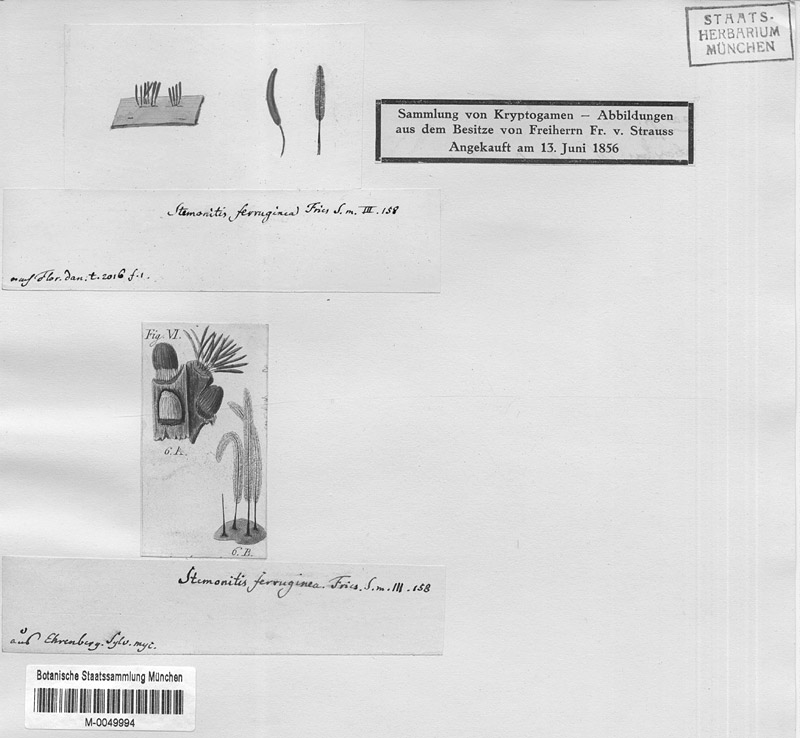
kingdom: Protozoa
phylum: Mycetozoa
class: Myxomycetes
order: Stemonitidales
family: Stemonitidaceae
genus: Stemonitis
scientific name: Stemonitis axifera
